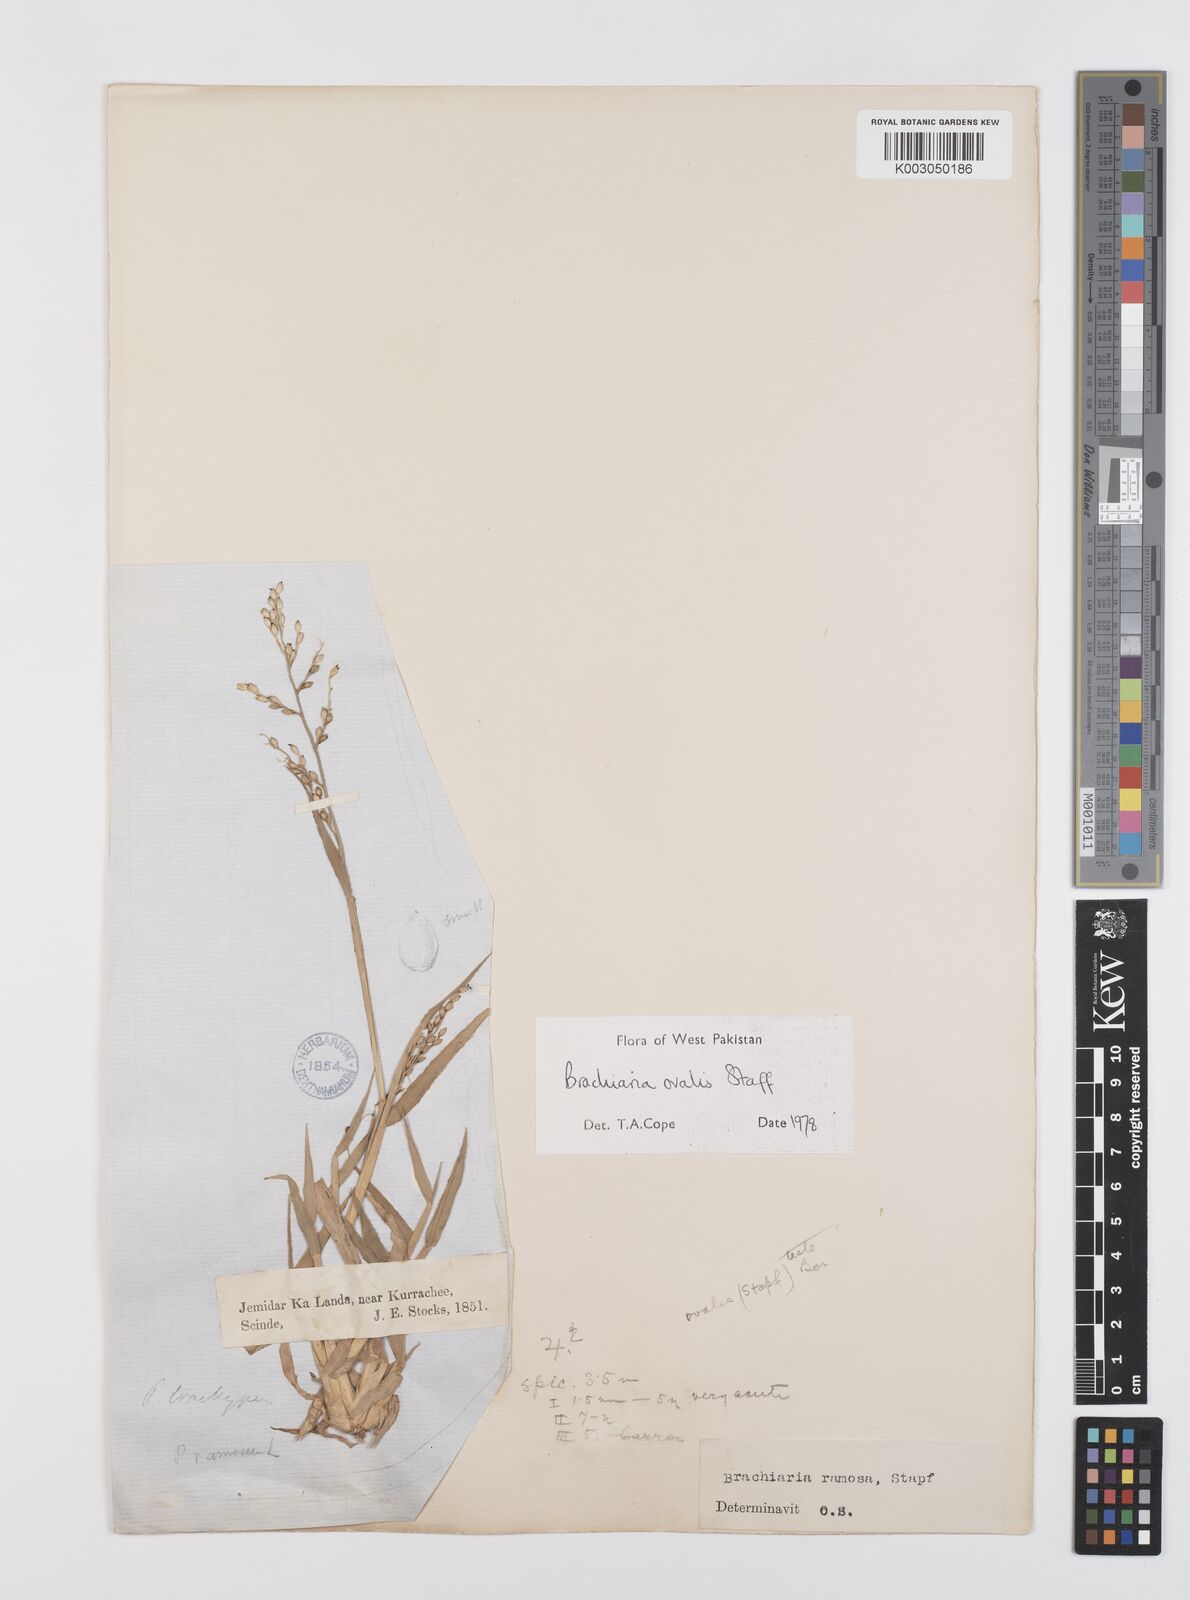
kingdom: Plantae
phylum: Tracheophyta
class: Liliopsida
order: Poales
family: Poaceae
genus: Urochloa
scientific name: Urochloa ovalis
